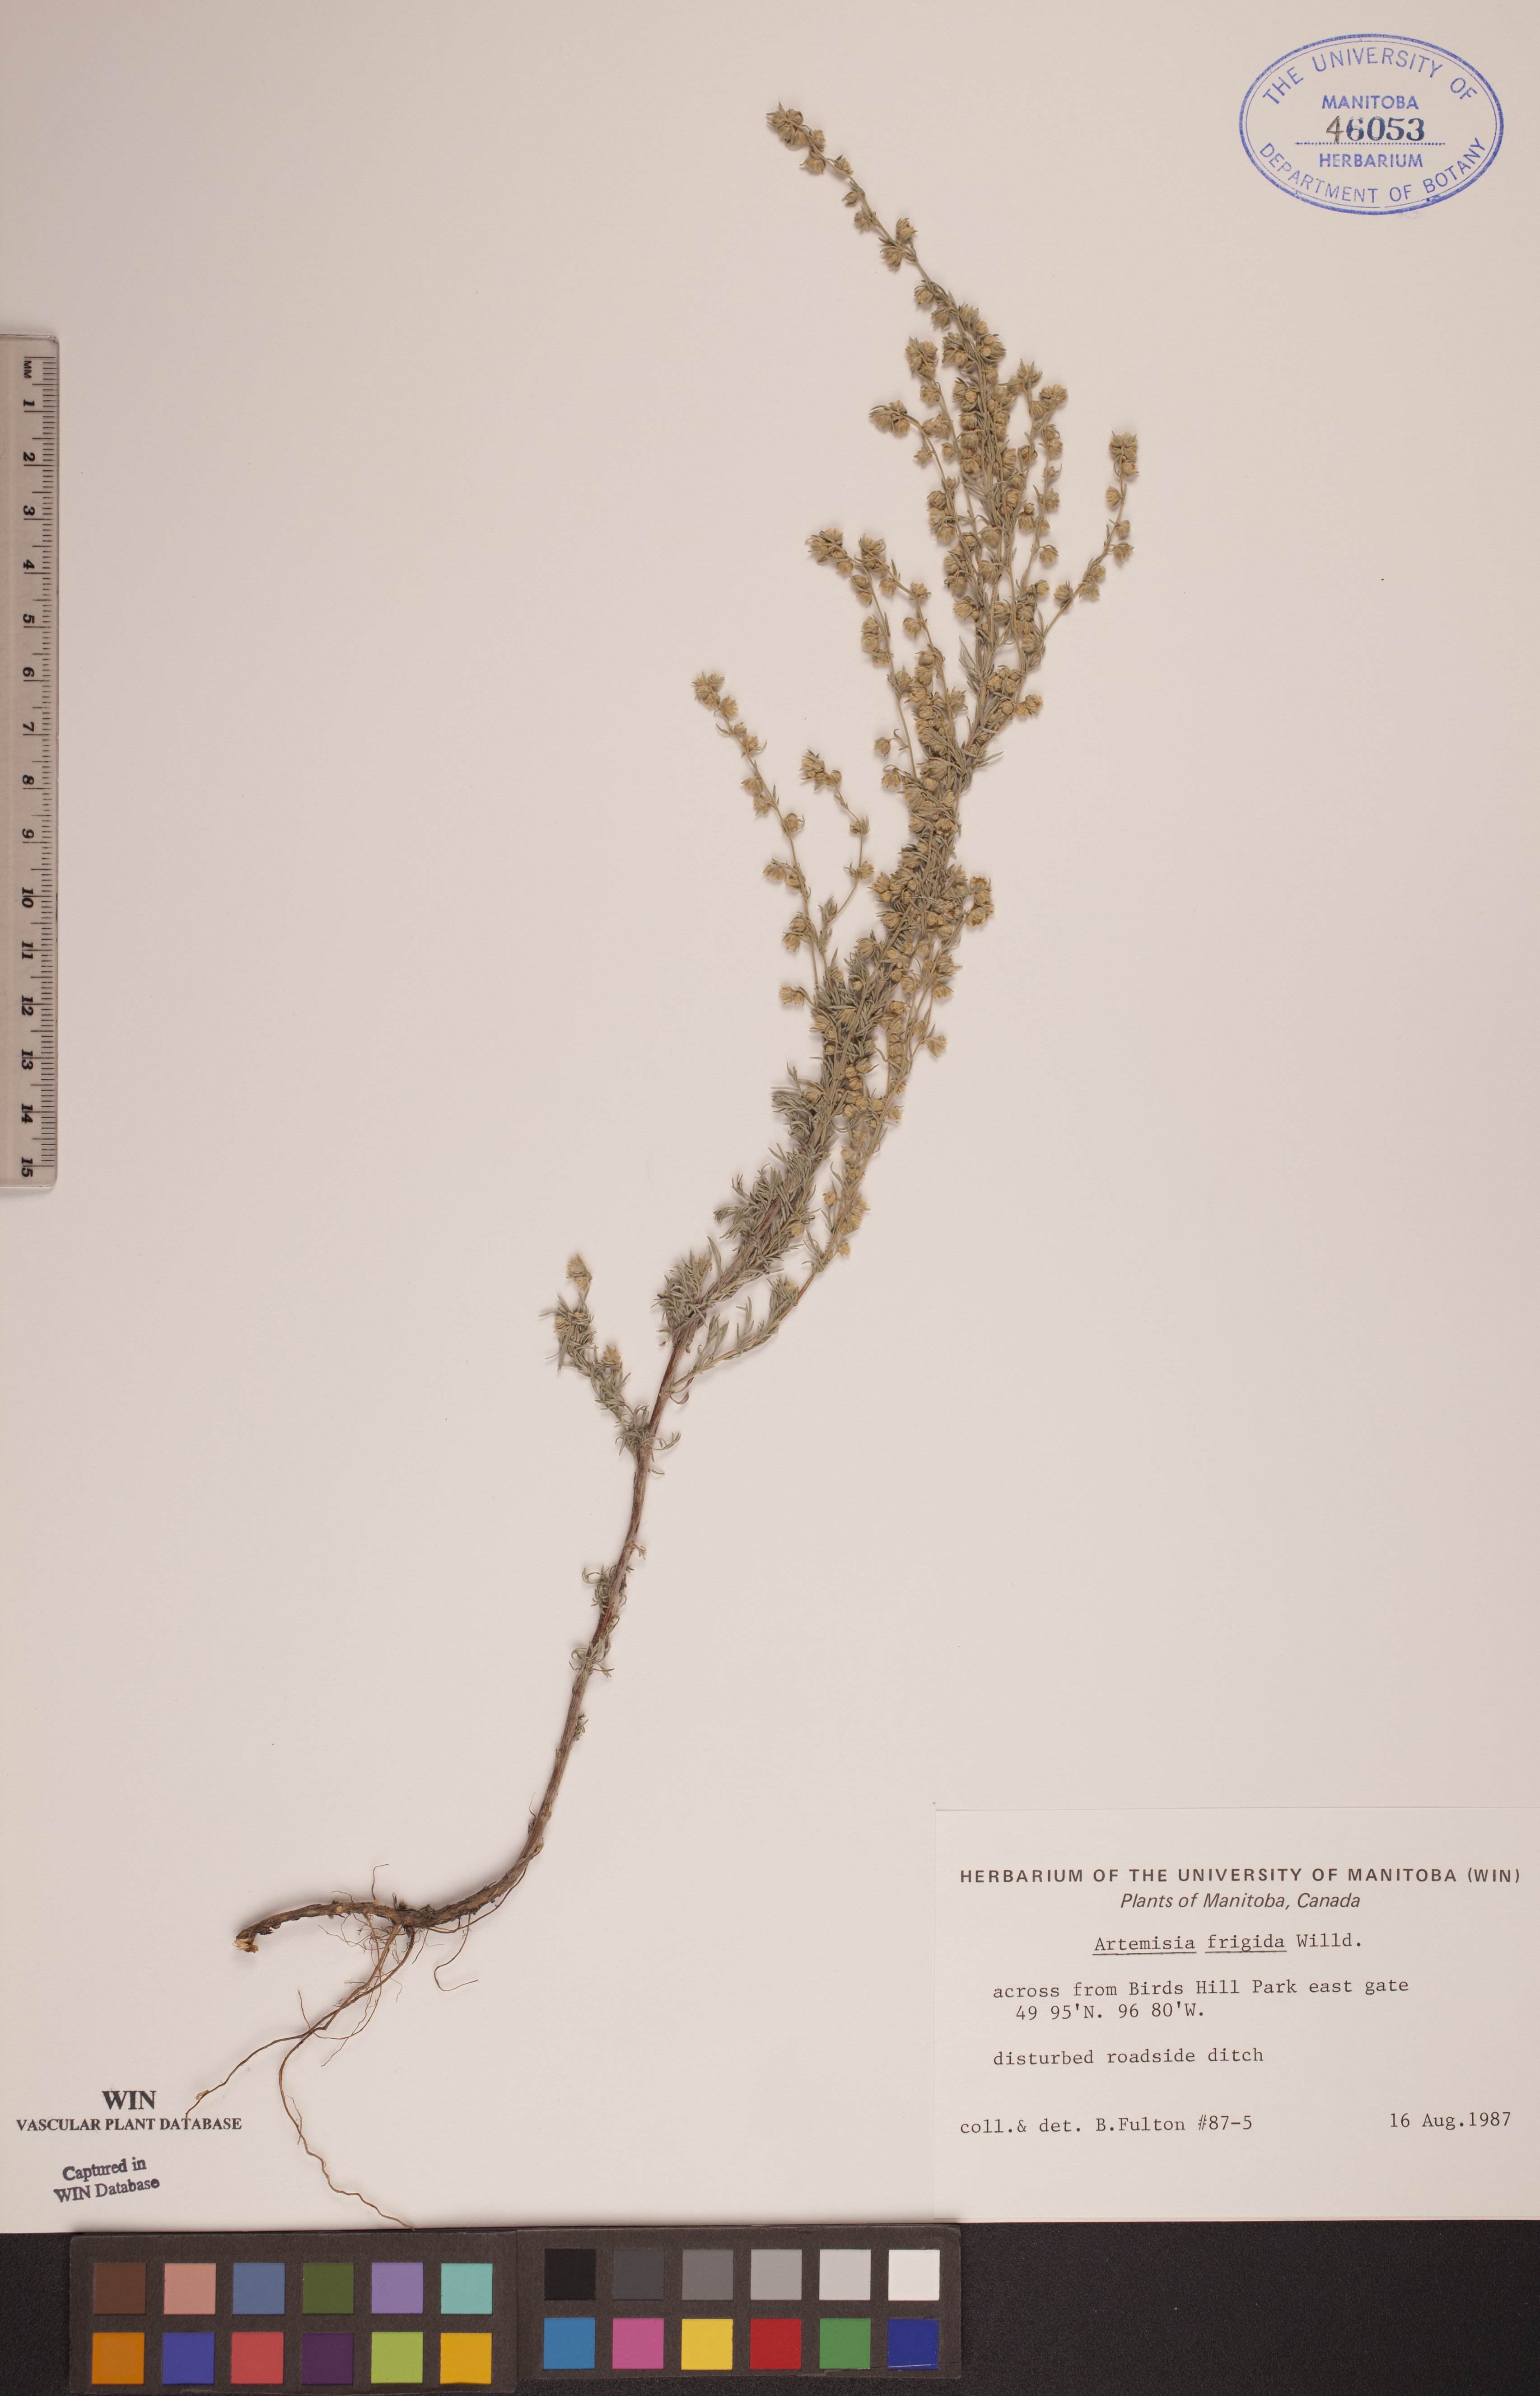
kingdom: Plantae
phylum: Tracheophyta
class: Magnoliopsida
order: Asterales
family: Asteraceae
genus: Artemisia
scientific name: Artemisia frigida
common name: Prairie sagewort
